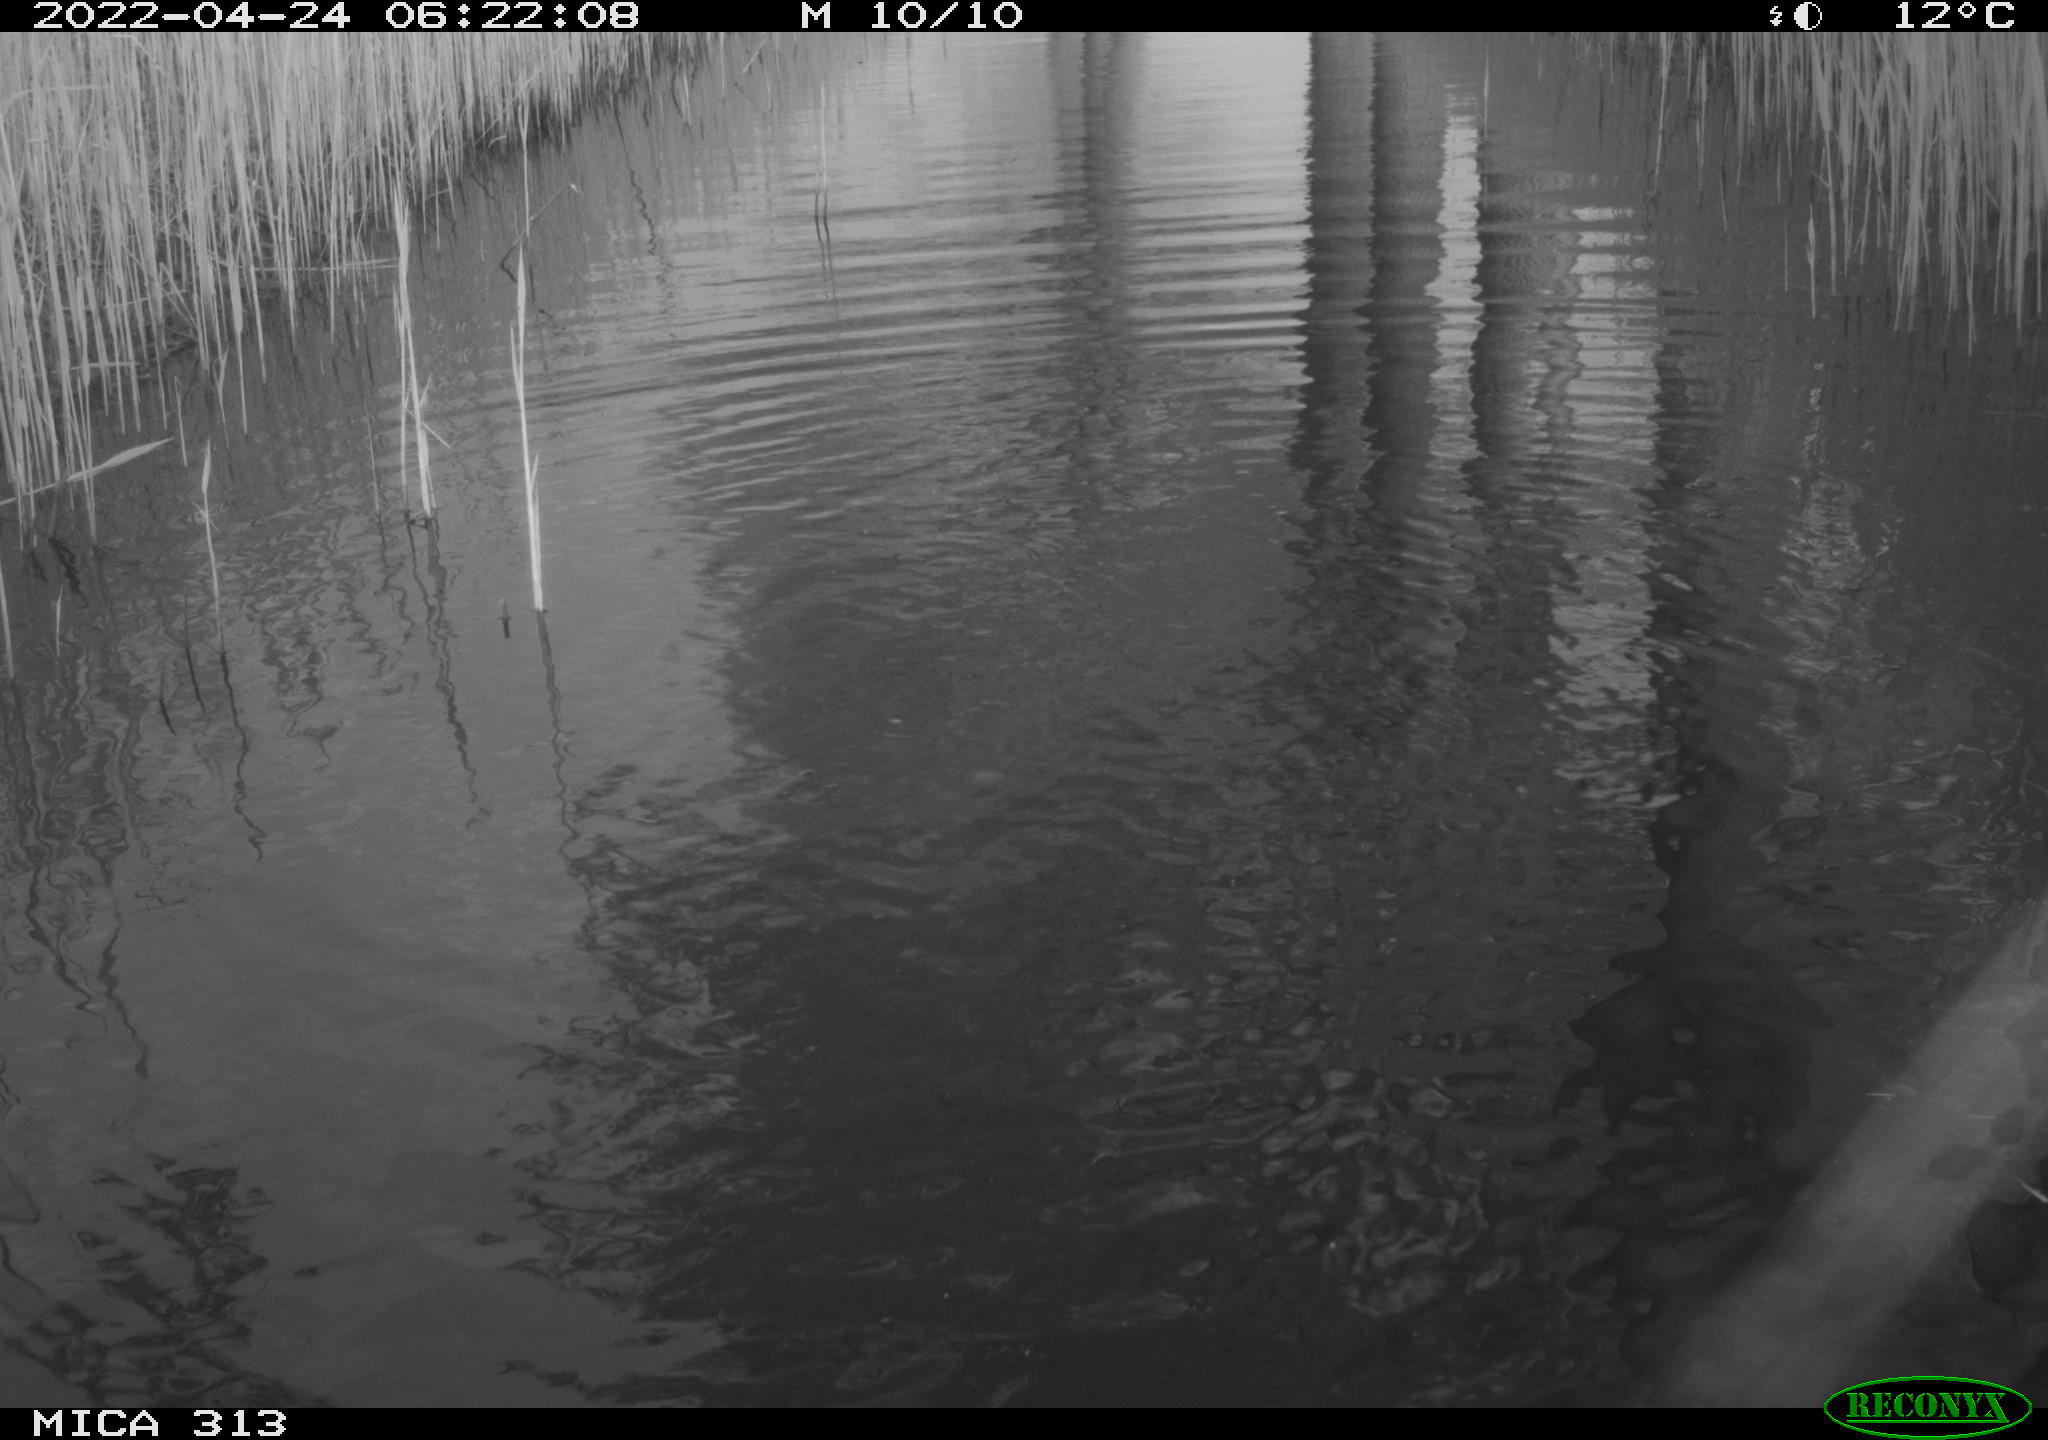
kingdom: Animalia
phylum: Chordata
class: Aves
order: Anseriformes
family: Anatidae
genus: Anas
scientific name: Anas platyrhynchos
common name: Mallard
